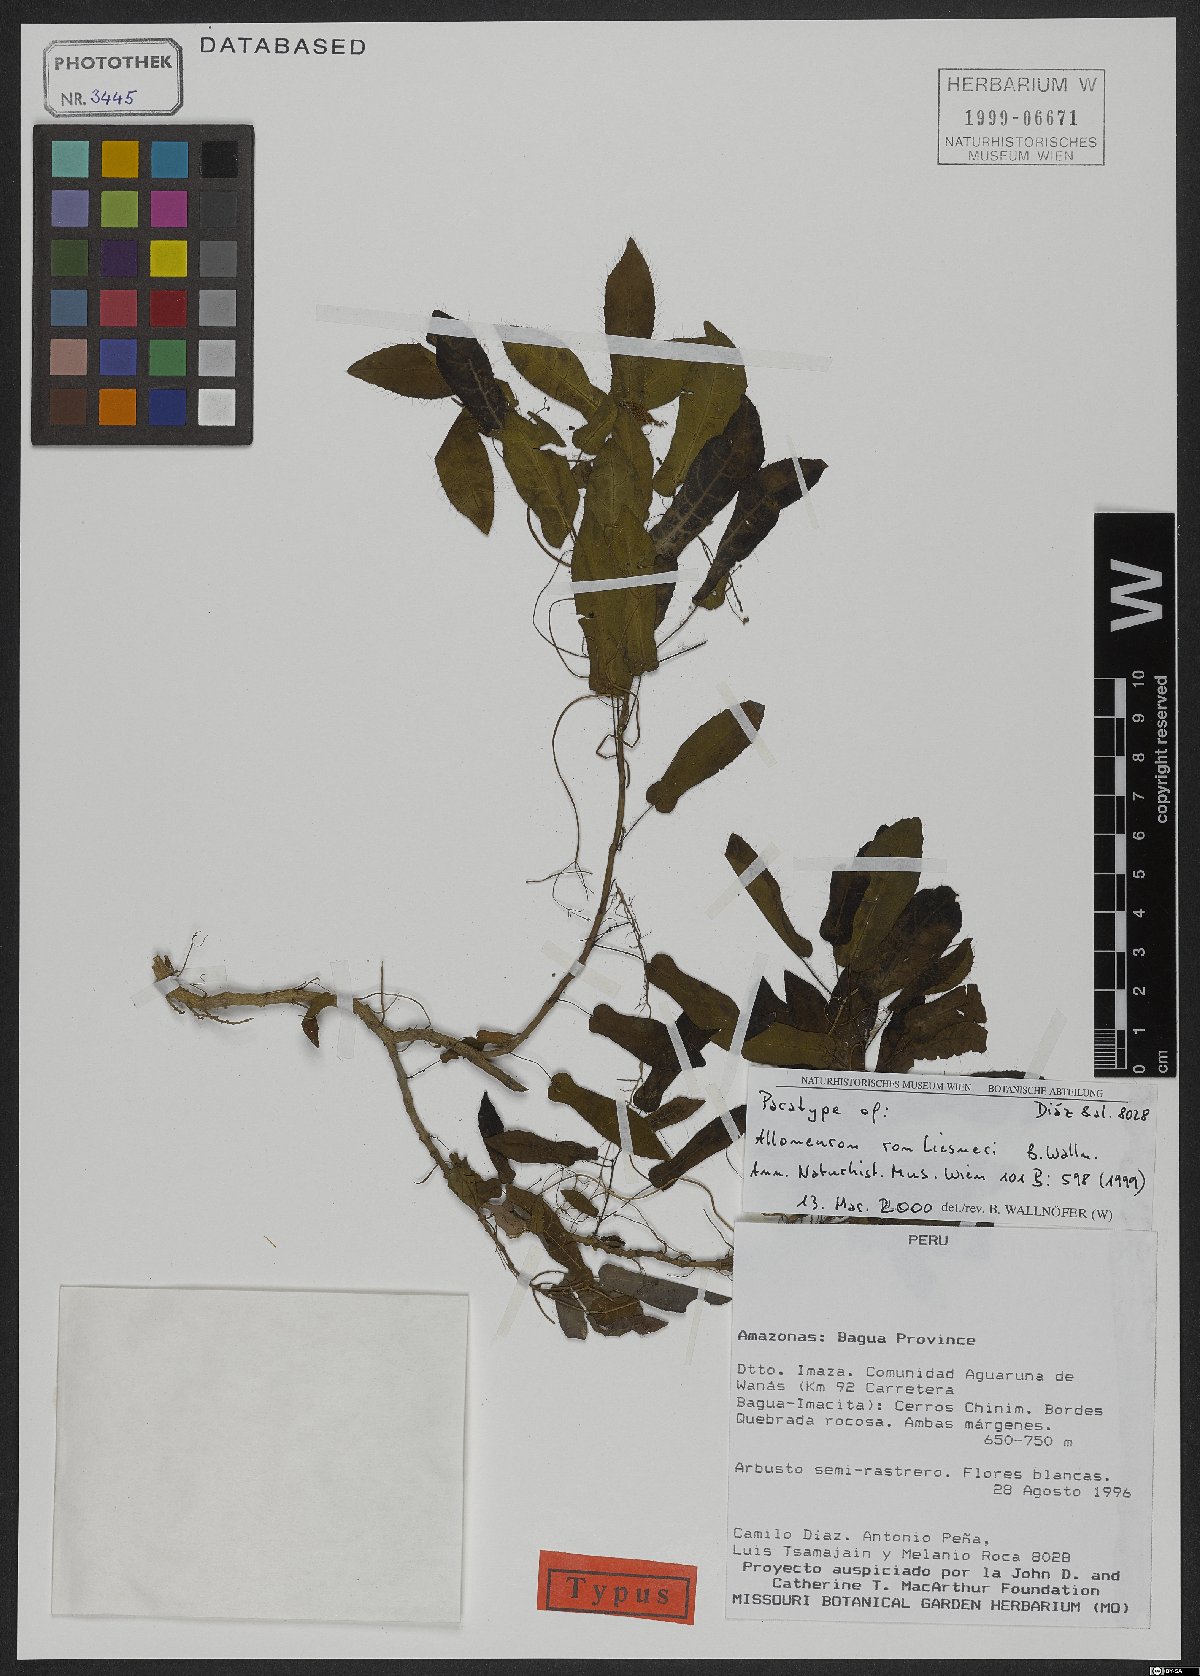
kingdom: Plantae
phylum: Tracheophyta
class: Magnoliopsida
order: Myrtales
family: Melastomataceae
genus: Alloneuron
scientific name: Alloneuron ronliesneri
